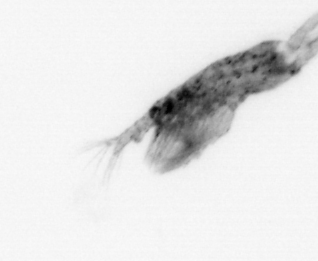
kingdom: Animalia
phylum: Arthropoda
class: Copepoda
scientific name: Copepoda
